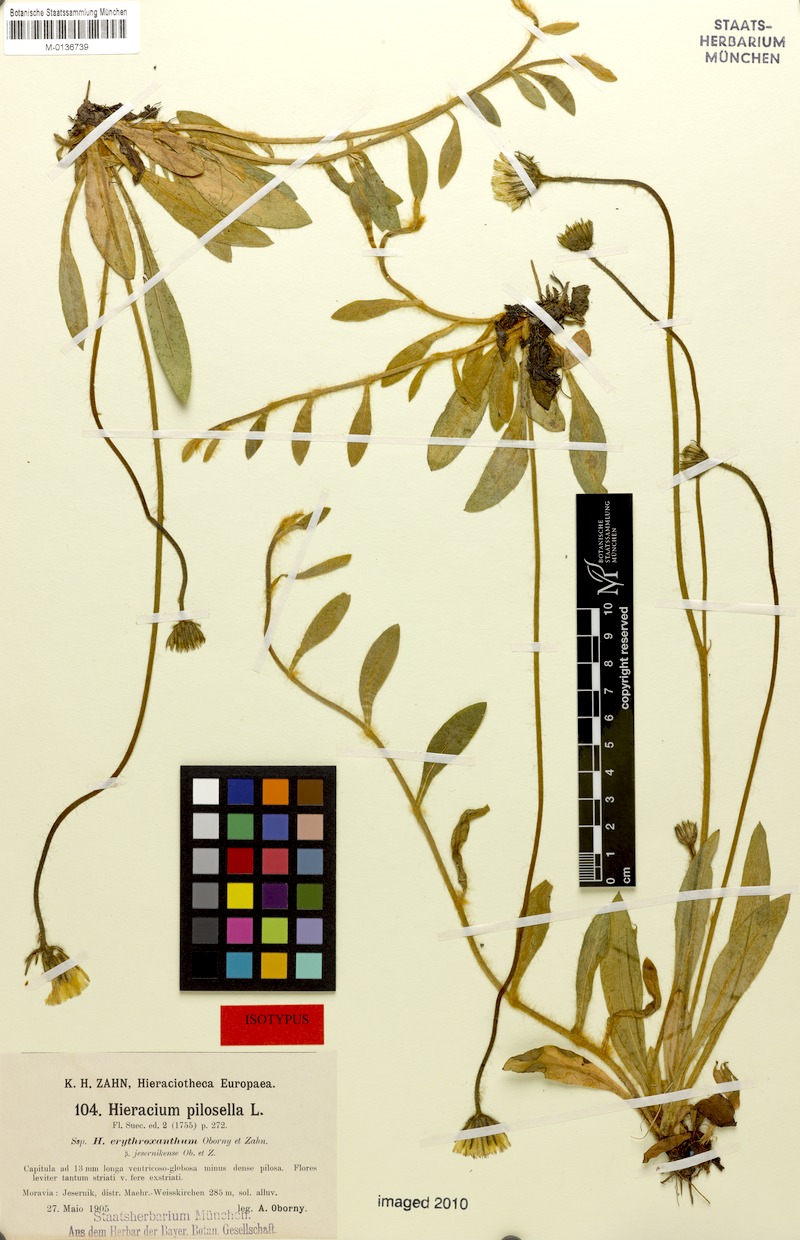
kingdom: Plantae
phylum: Tracheophyta
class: Magnoliopsida
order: Asterales
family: Asteraceae
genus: Pilosella
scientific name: Pilosella officinarum
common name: Mouse-ear hawkweed
